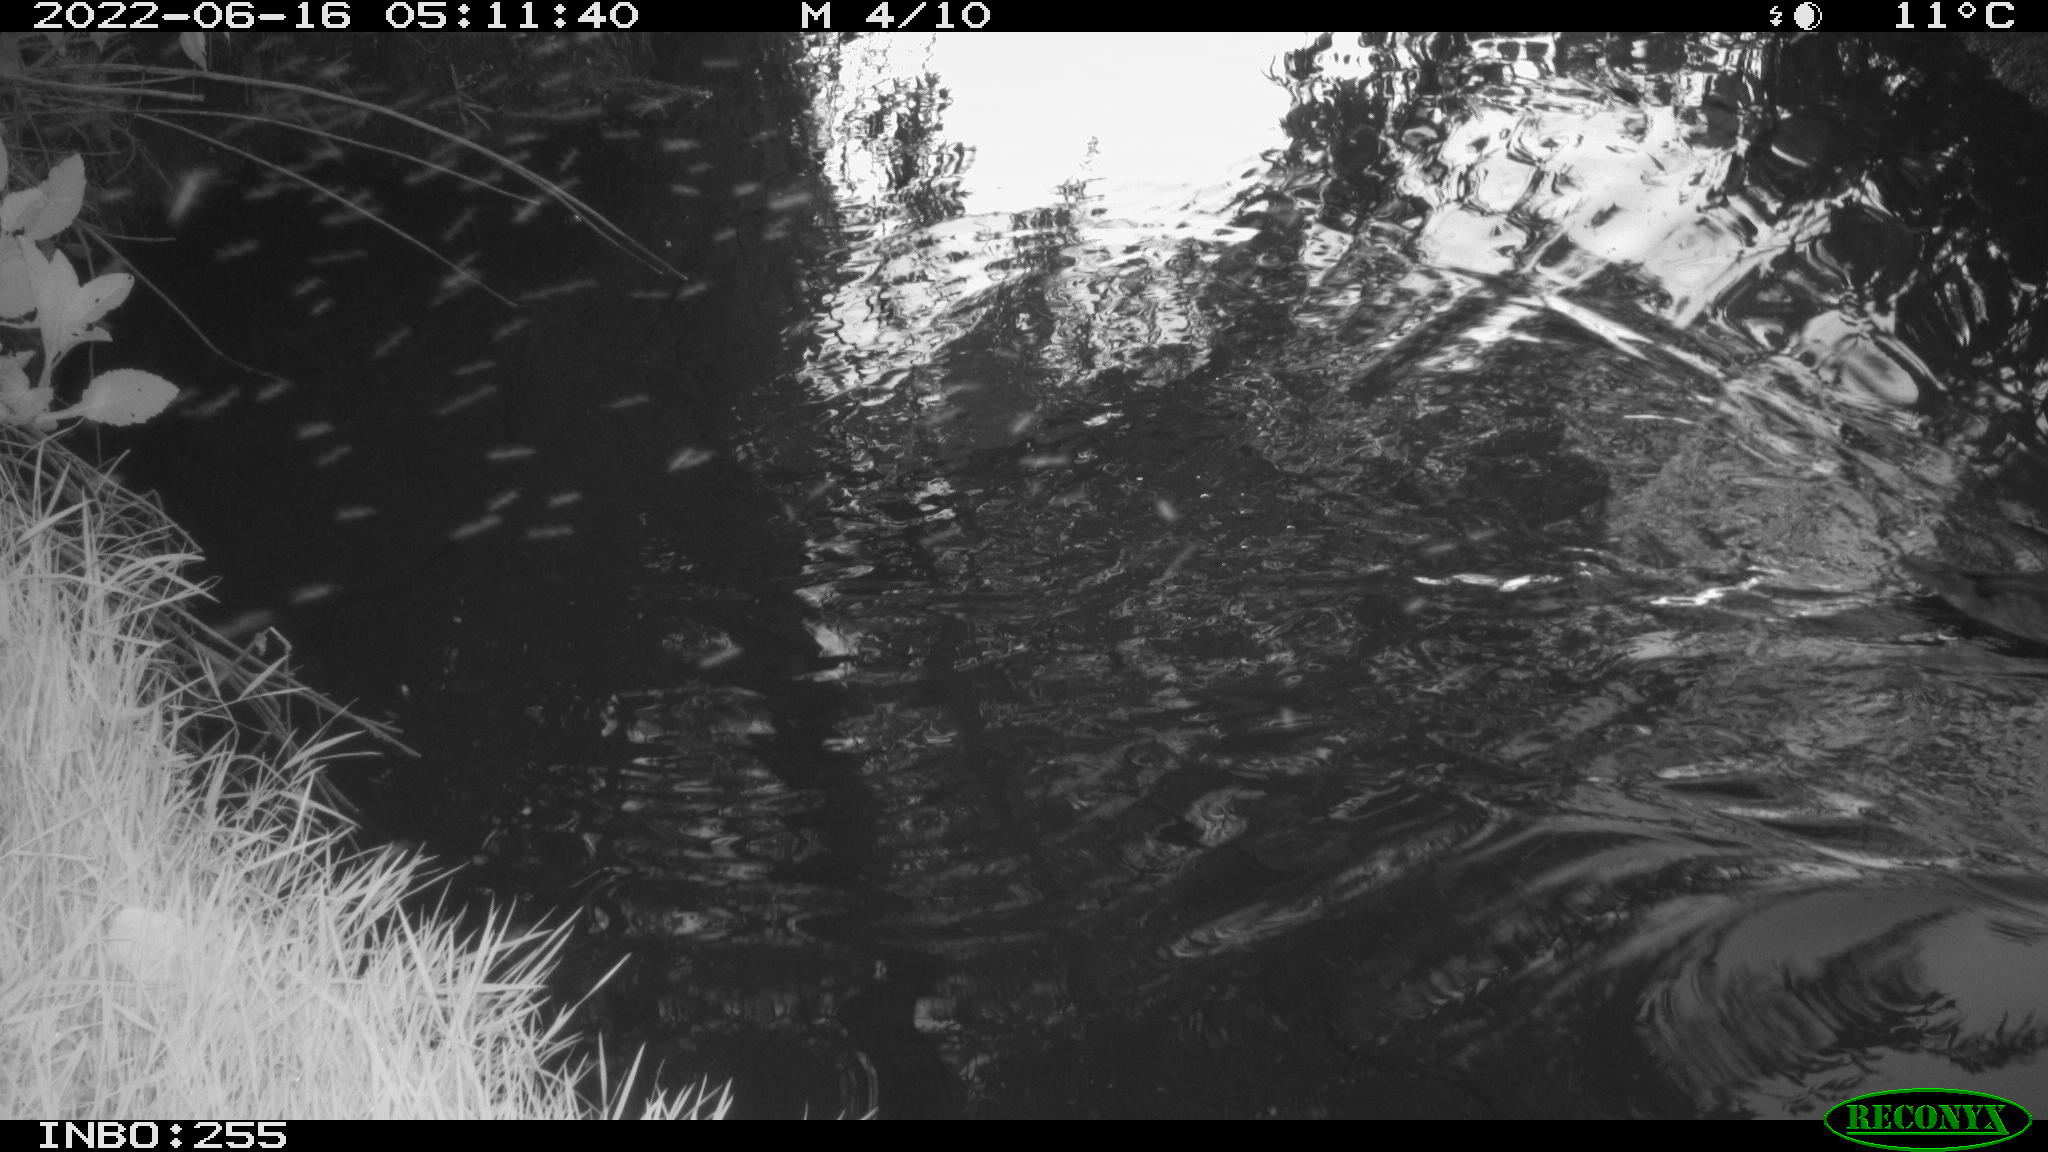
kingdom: Animalia
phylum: Chordata
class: Aves
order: Anseriformes
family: Anatidae
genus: Mareca
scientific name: Mareca strepera
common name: Gadwall
